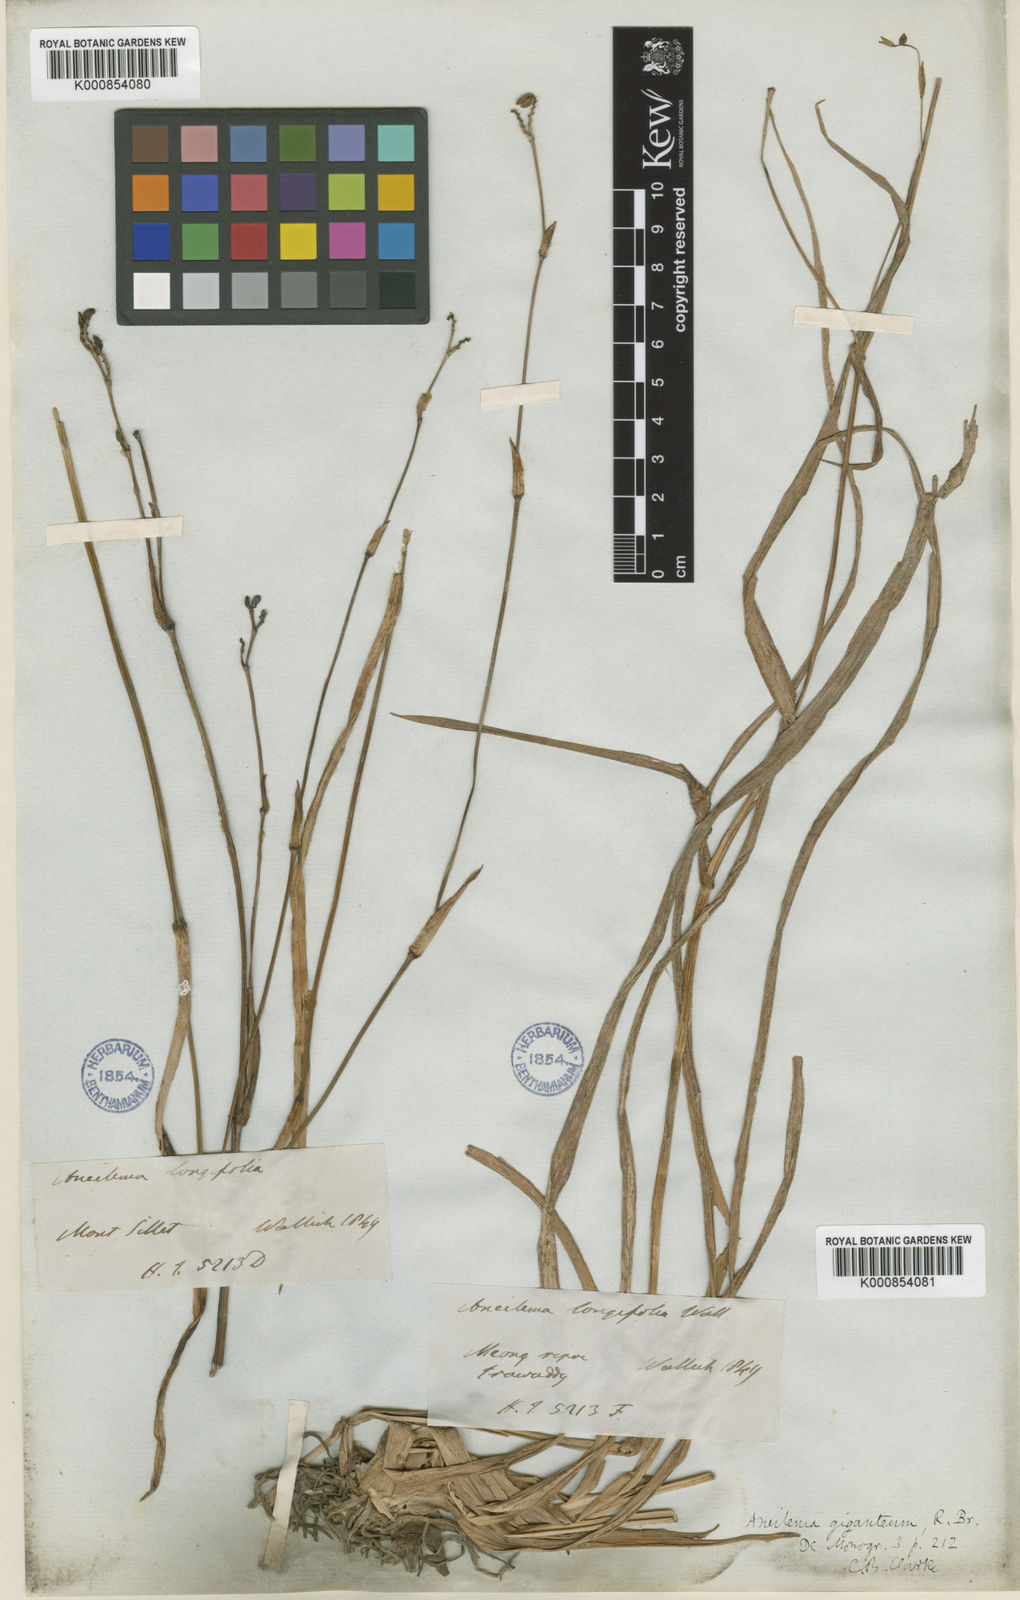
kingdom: Plantae
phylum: Tracheophyta
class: Liliopsida
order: Commelinales
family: Commelinaceae
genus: Murdannia
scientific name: Murdannia simplex
